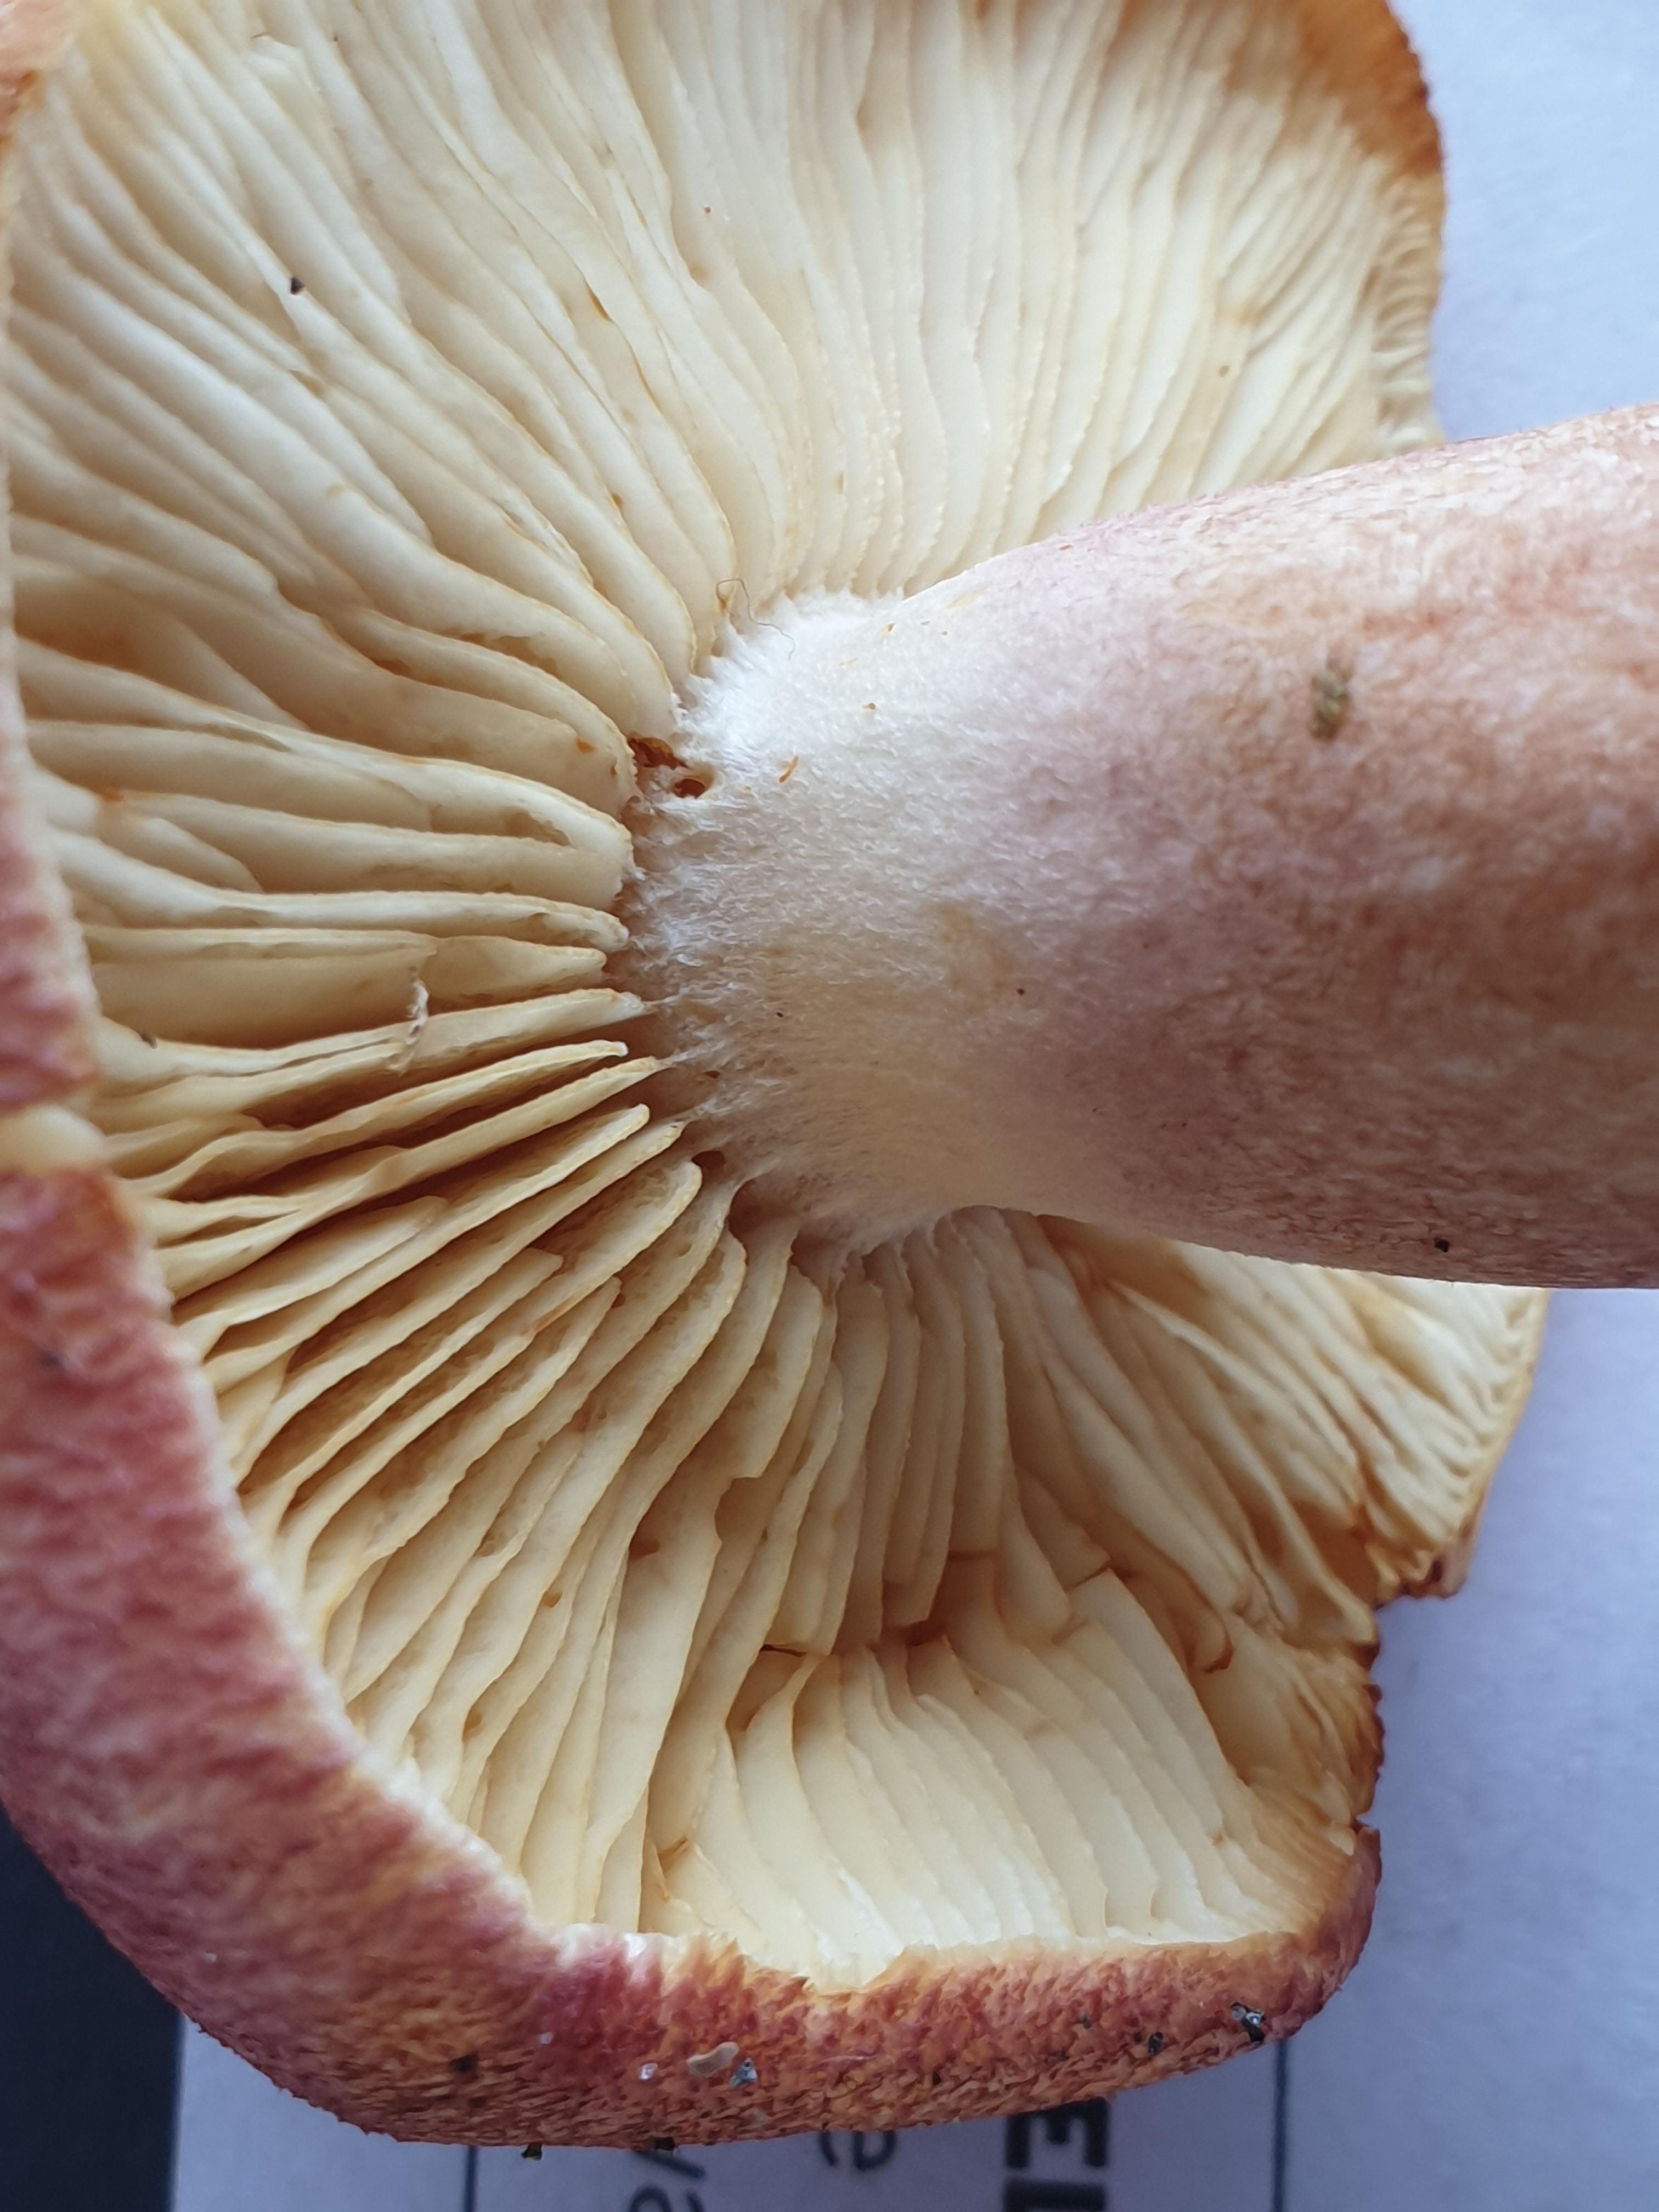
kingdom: Fungi
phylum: Basidiomycota
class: Agaricomycetes
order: Agaricales
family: Tricholomataceae
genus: Tricholomopsis
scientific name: Tricholomopsis rutilans
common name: purpur-væbnerhat
